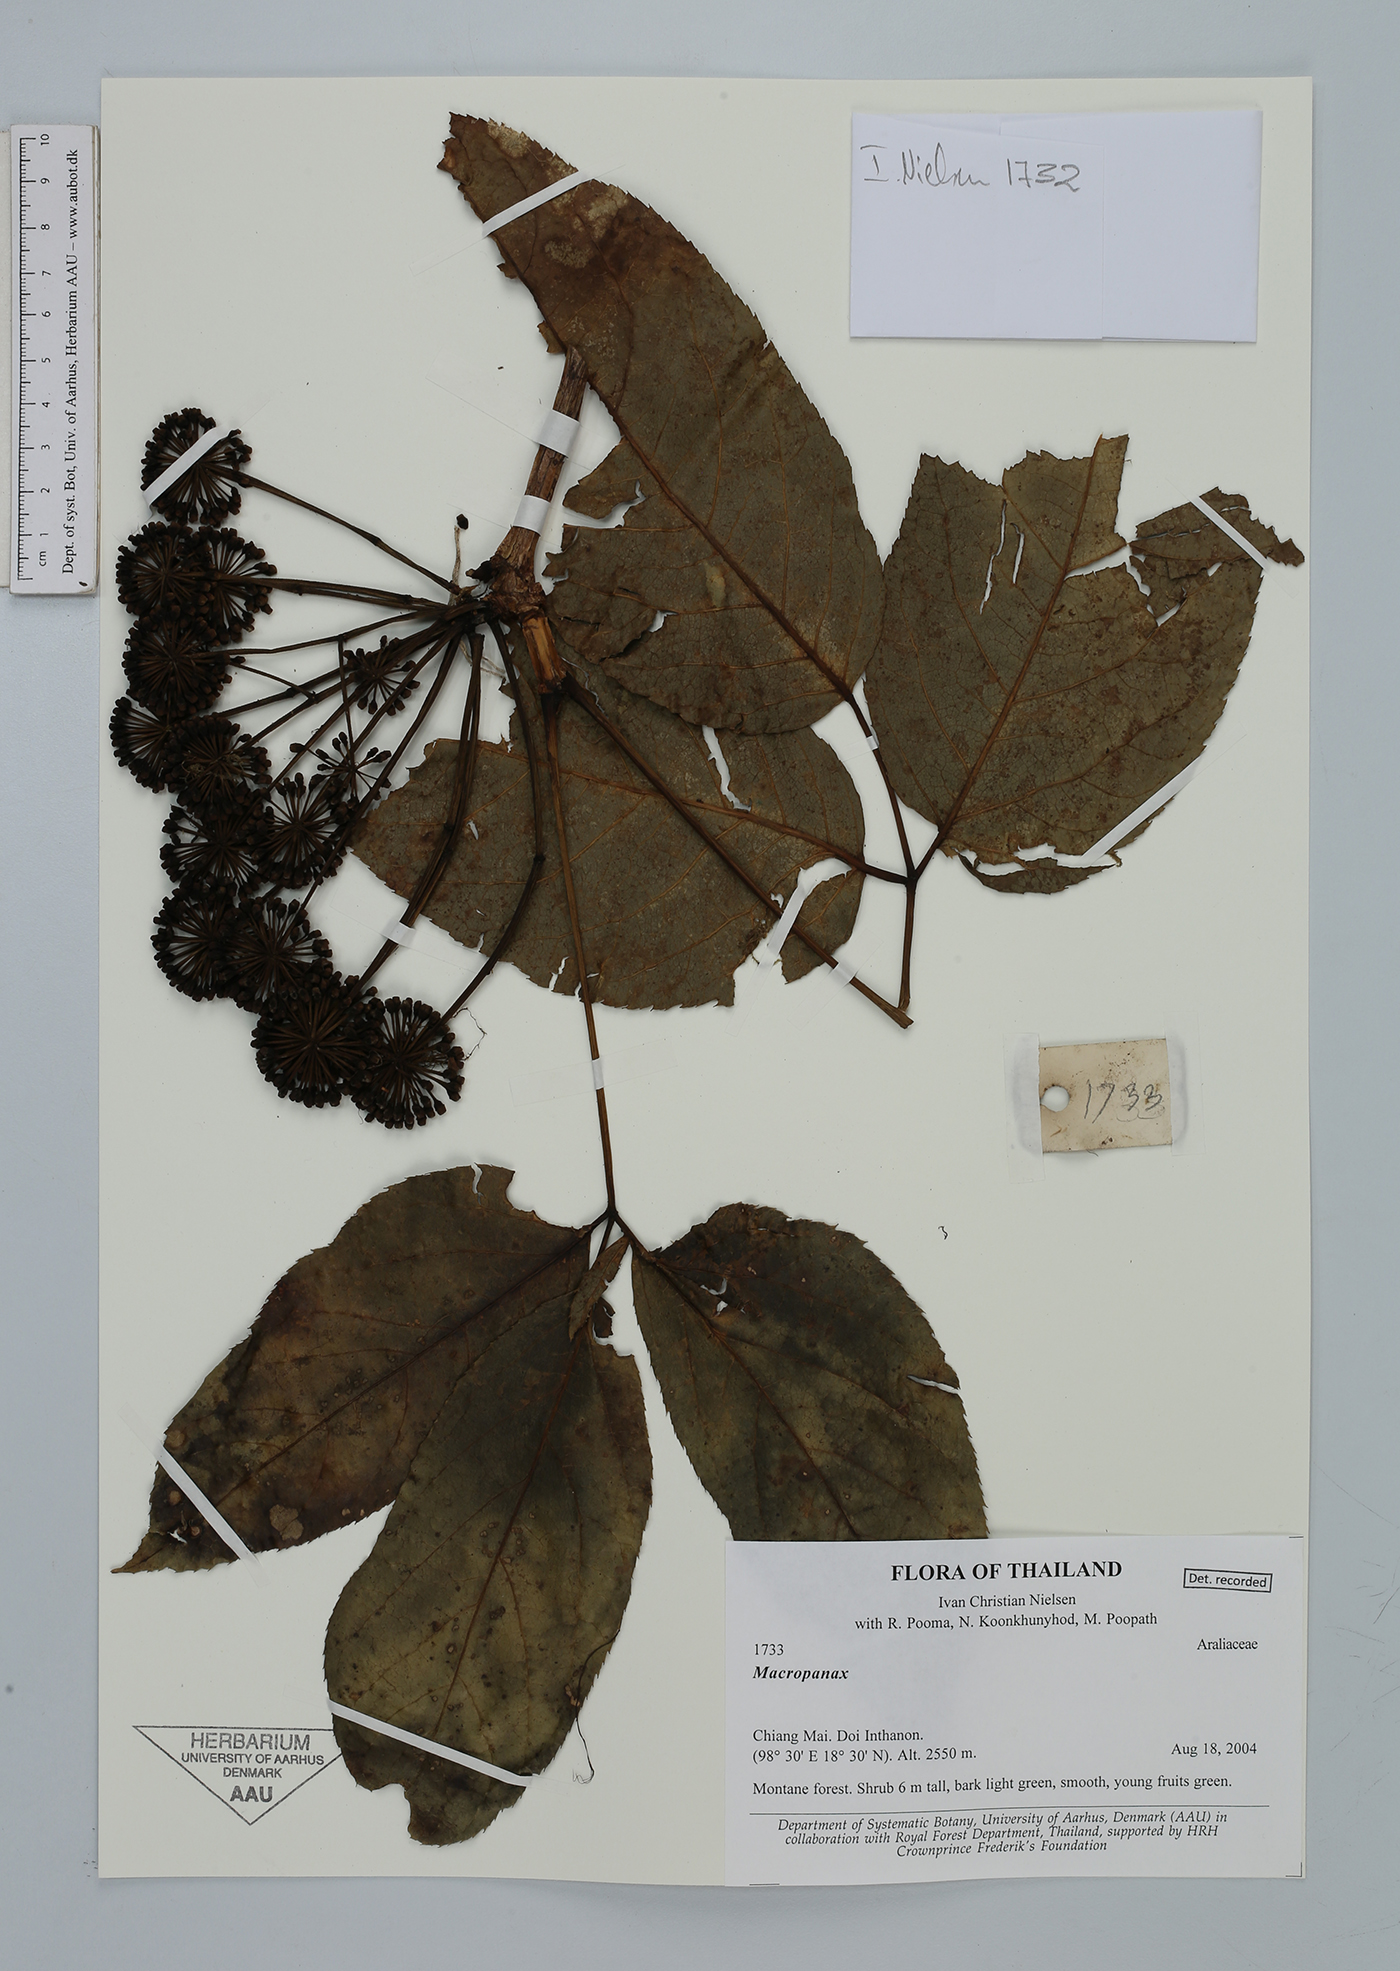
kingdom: Plantae
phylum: Tracheophyta
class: Magnoliopsida
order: Apiales
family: Araliaceae
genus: Macropanax
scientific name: Macropanax
